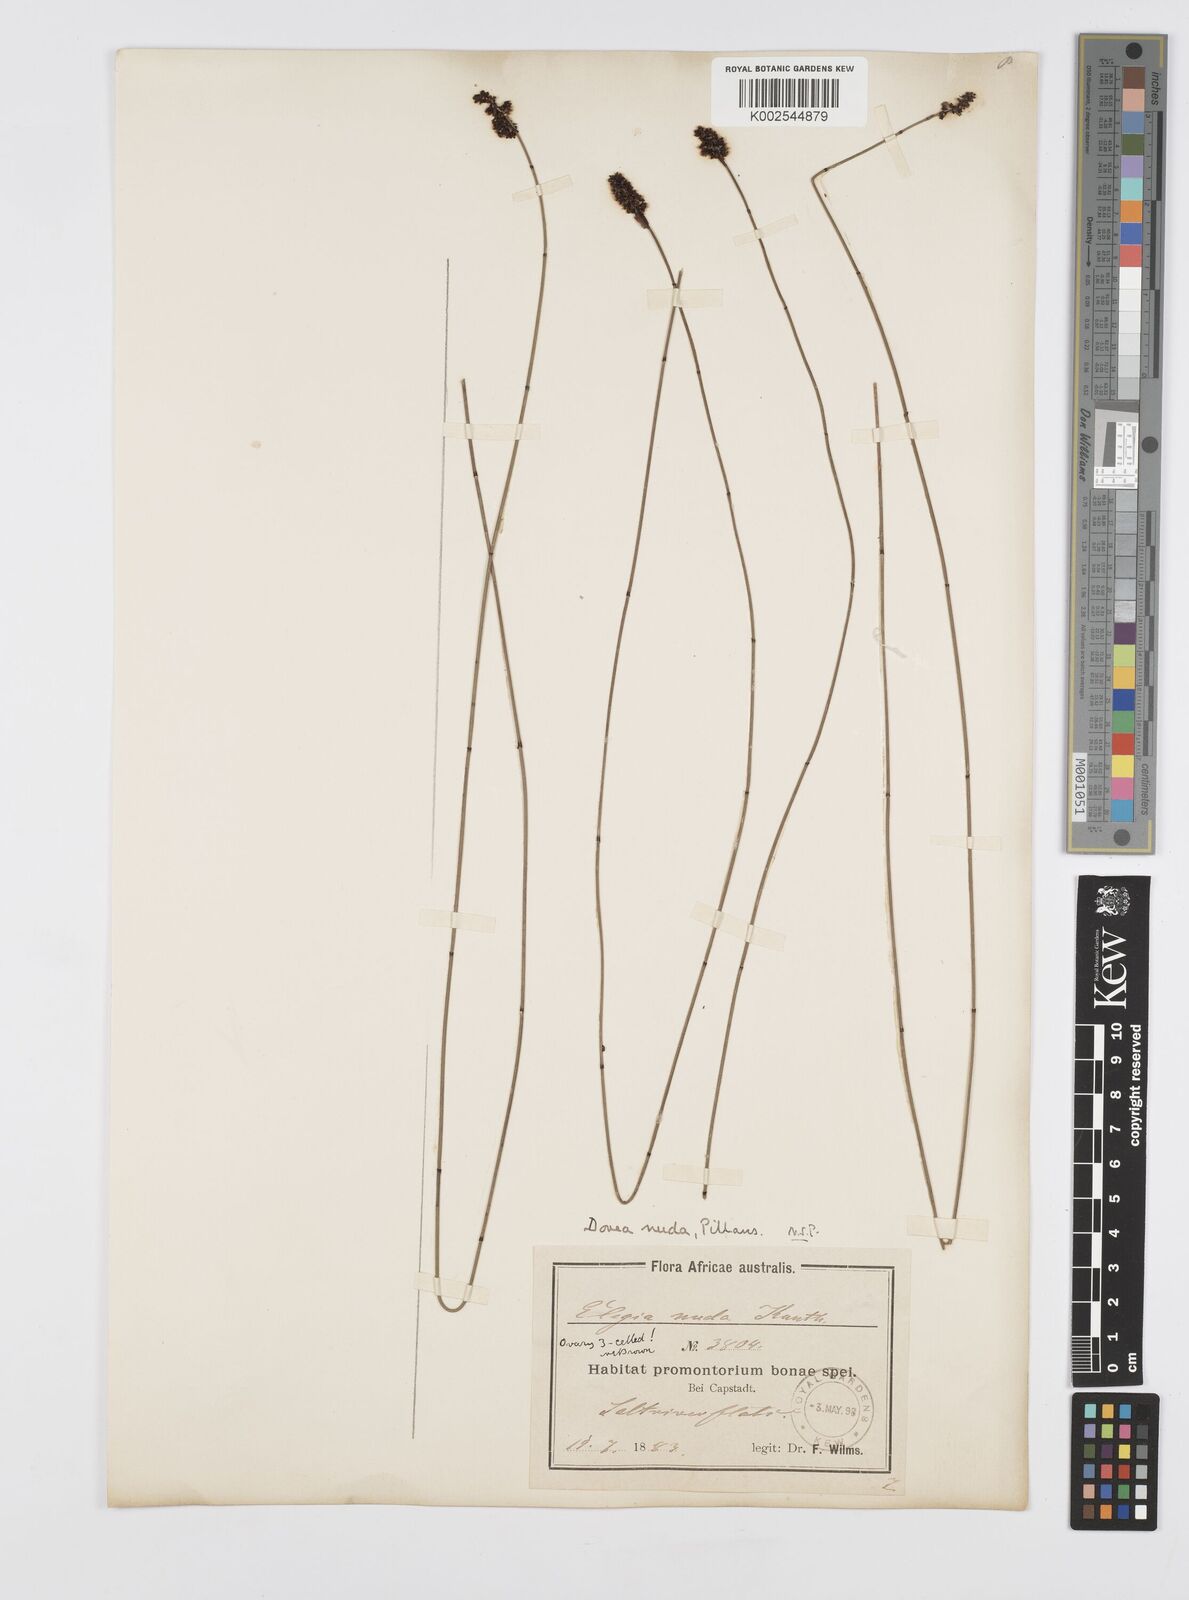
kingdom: Plantae
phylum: Tracheophyta
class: Liliopsida
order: Poales
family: Restionaceae
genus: Elegia
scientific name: Elegia nuda
